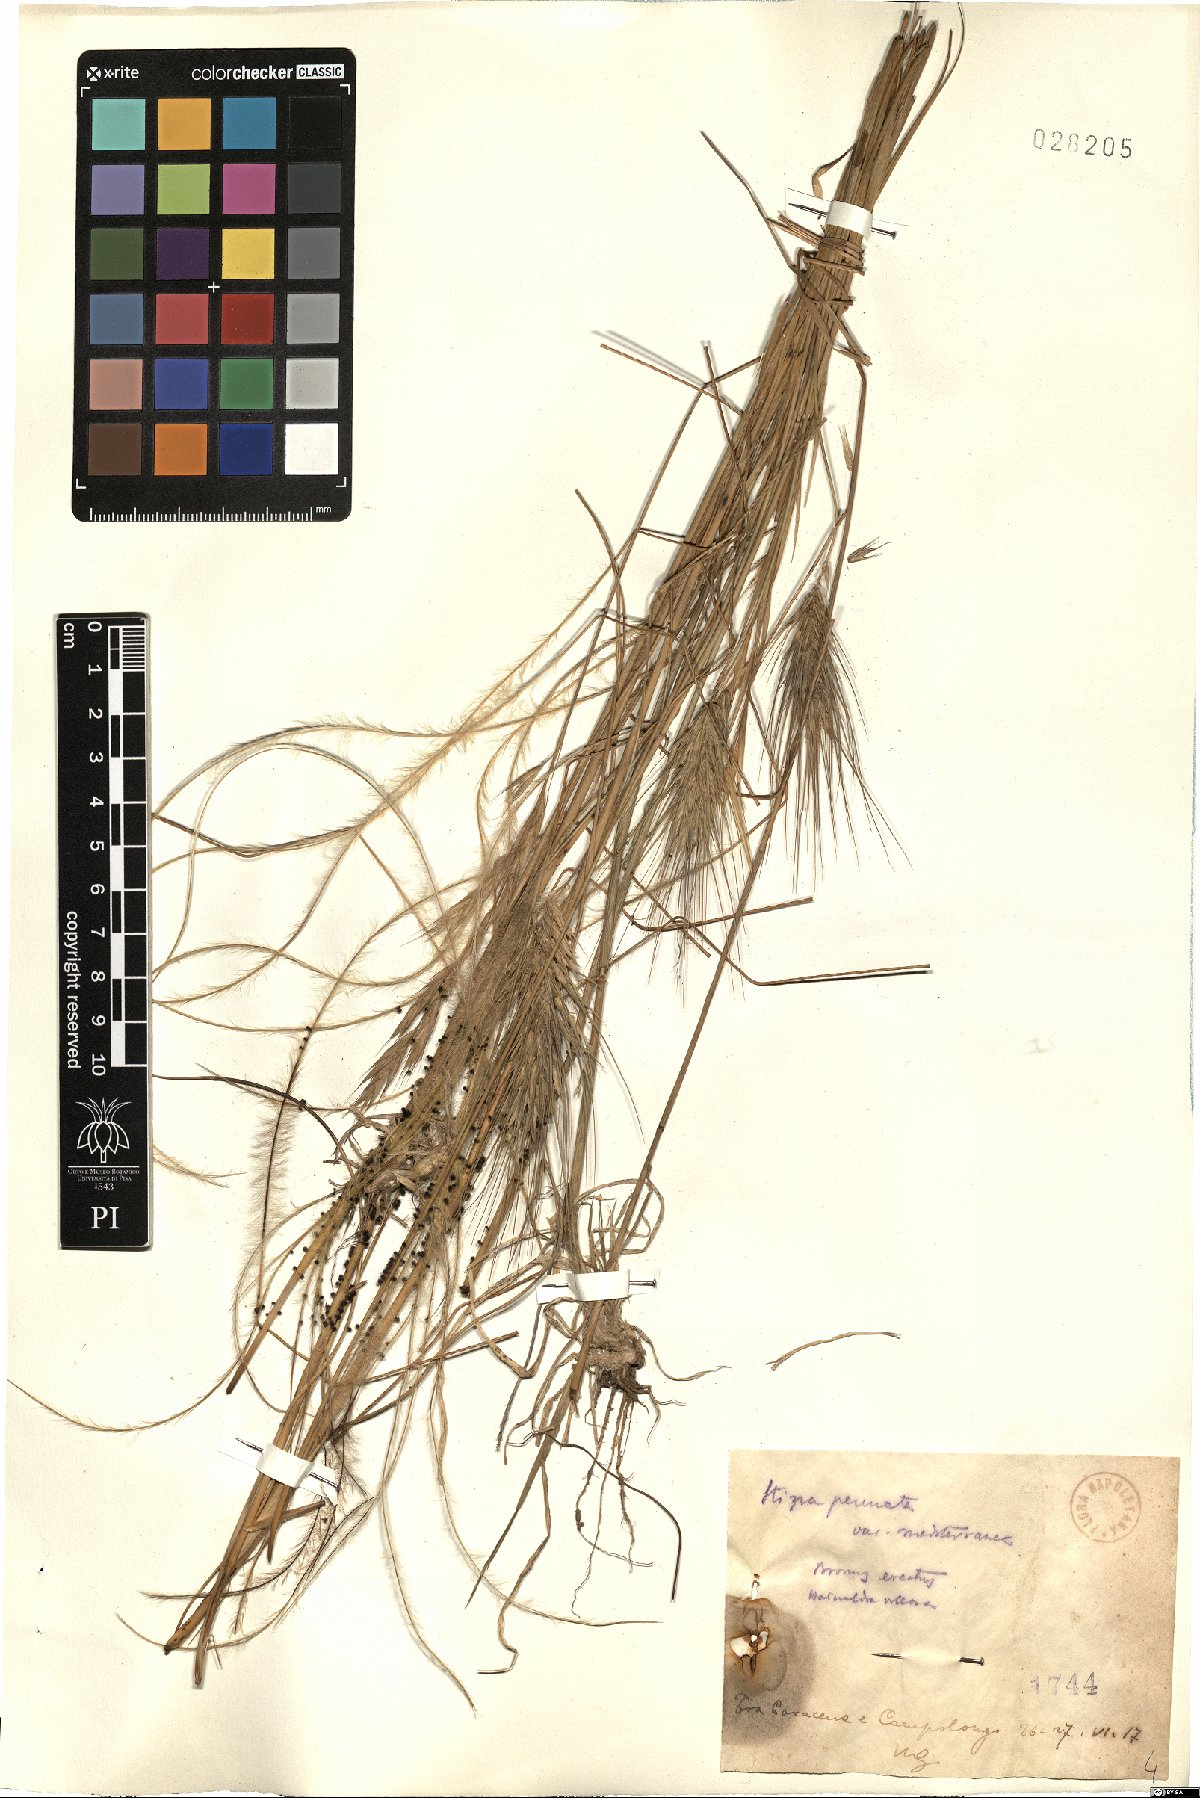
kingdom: Plantae
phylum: Tracheophyta
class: Liliopsida
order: Poales
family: Poaceae
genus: Stipa
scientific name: Stipa pulcherrima
